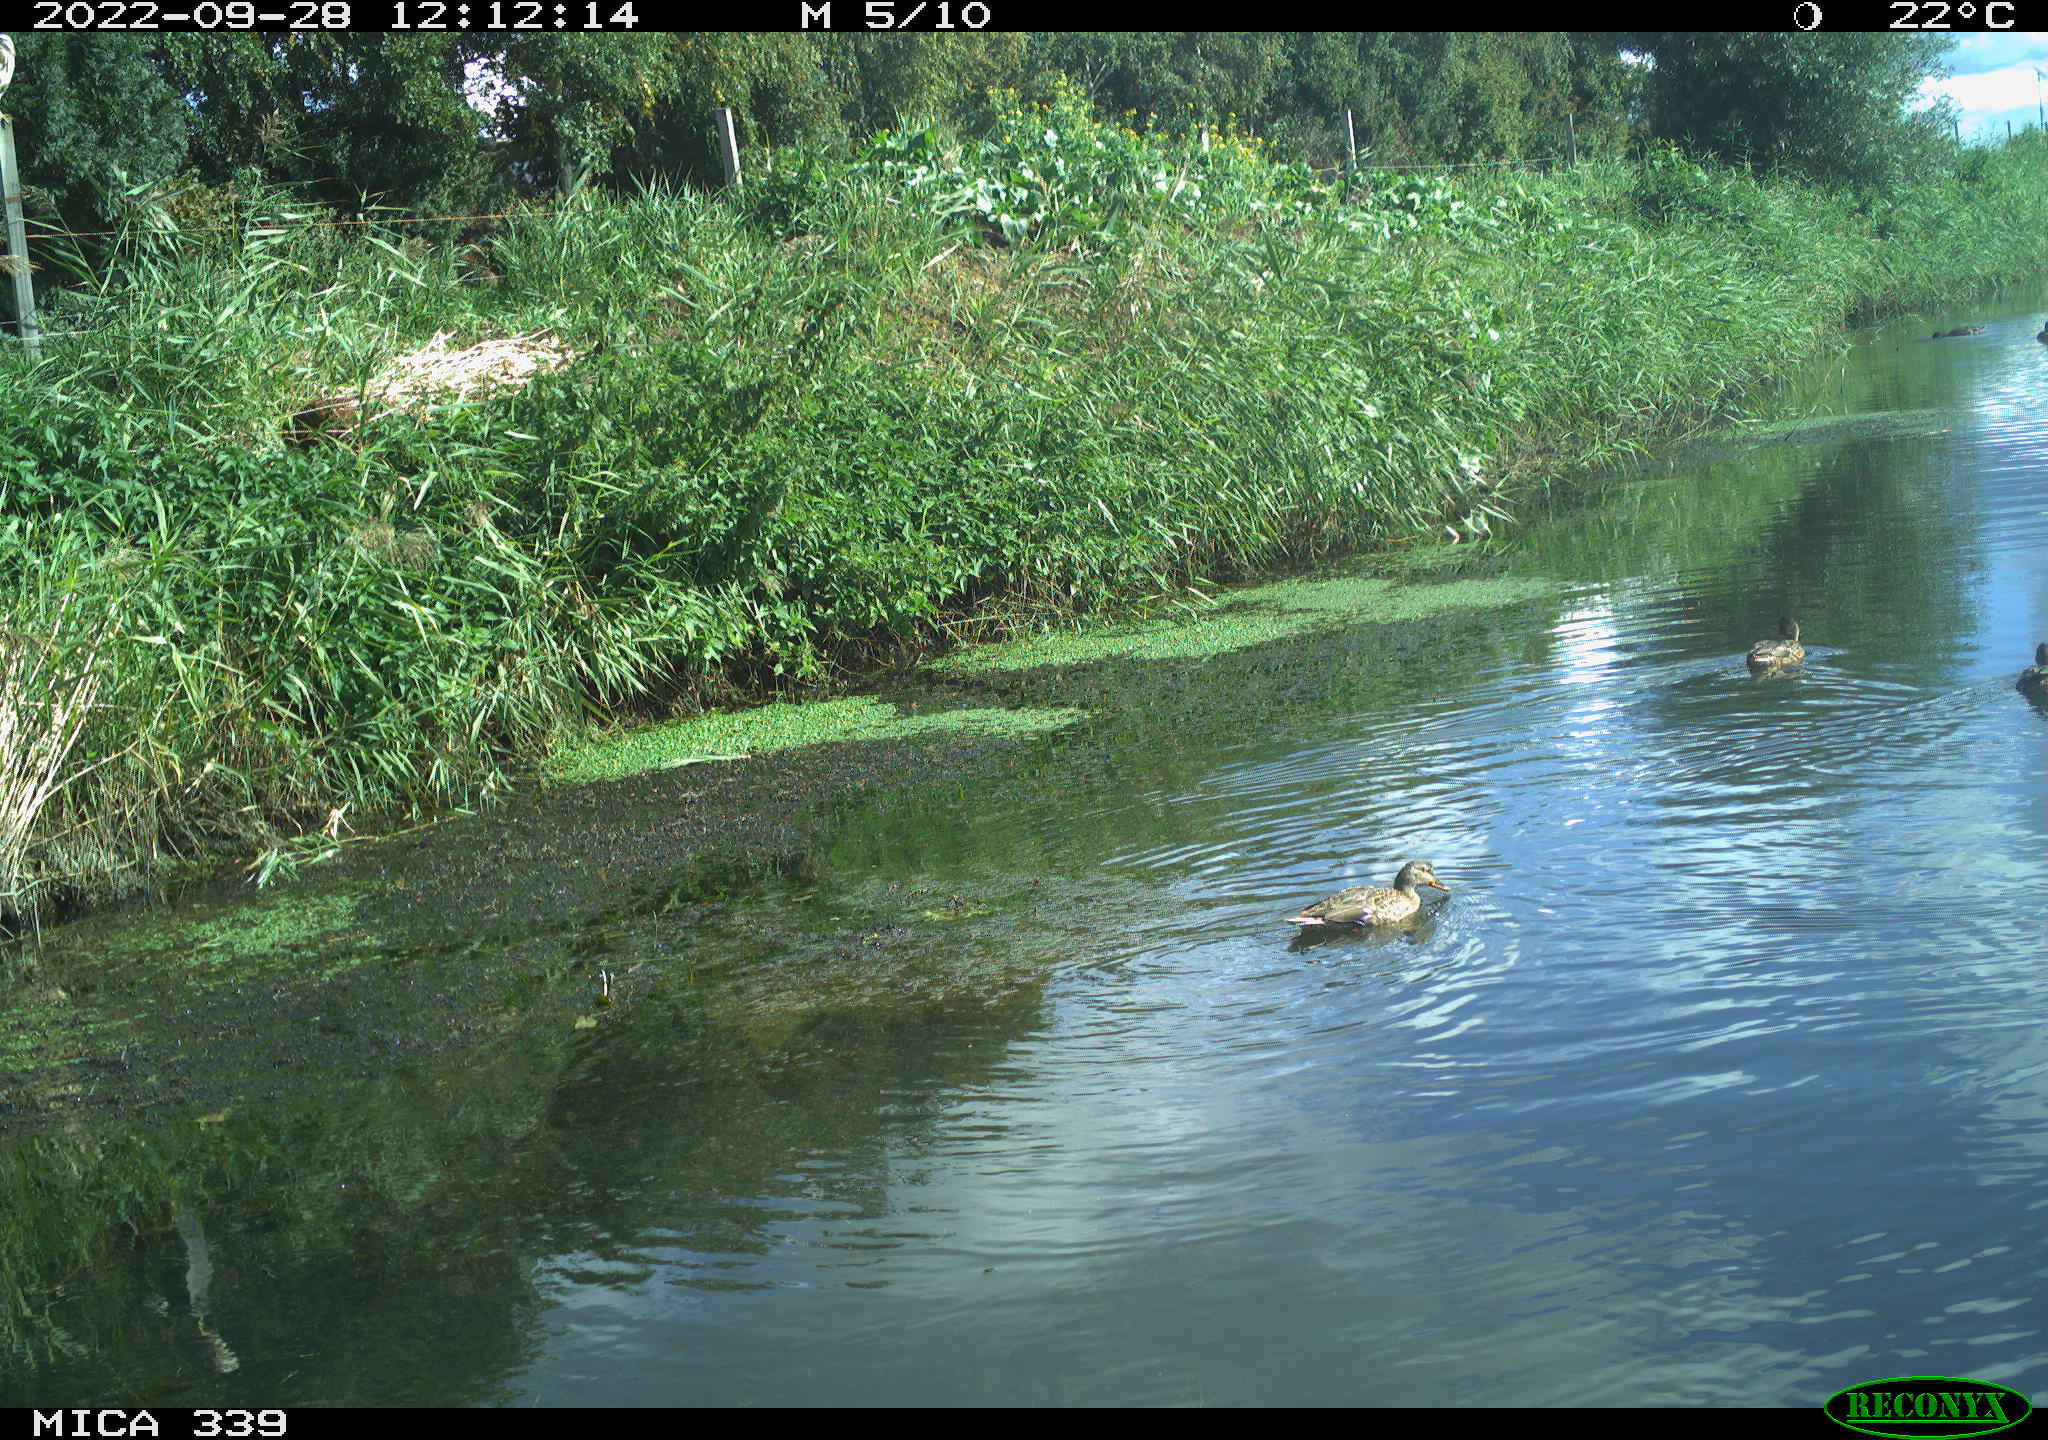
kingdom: Animalia
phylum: Chordata
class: Aves
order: Anseriformes
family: Anatidae
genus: Anas
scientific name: Anas platyrhynchos
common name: Mallard
